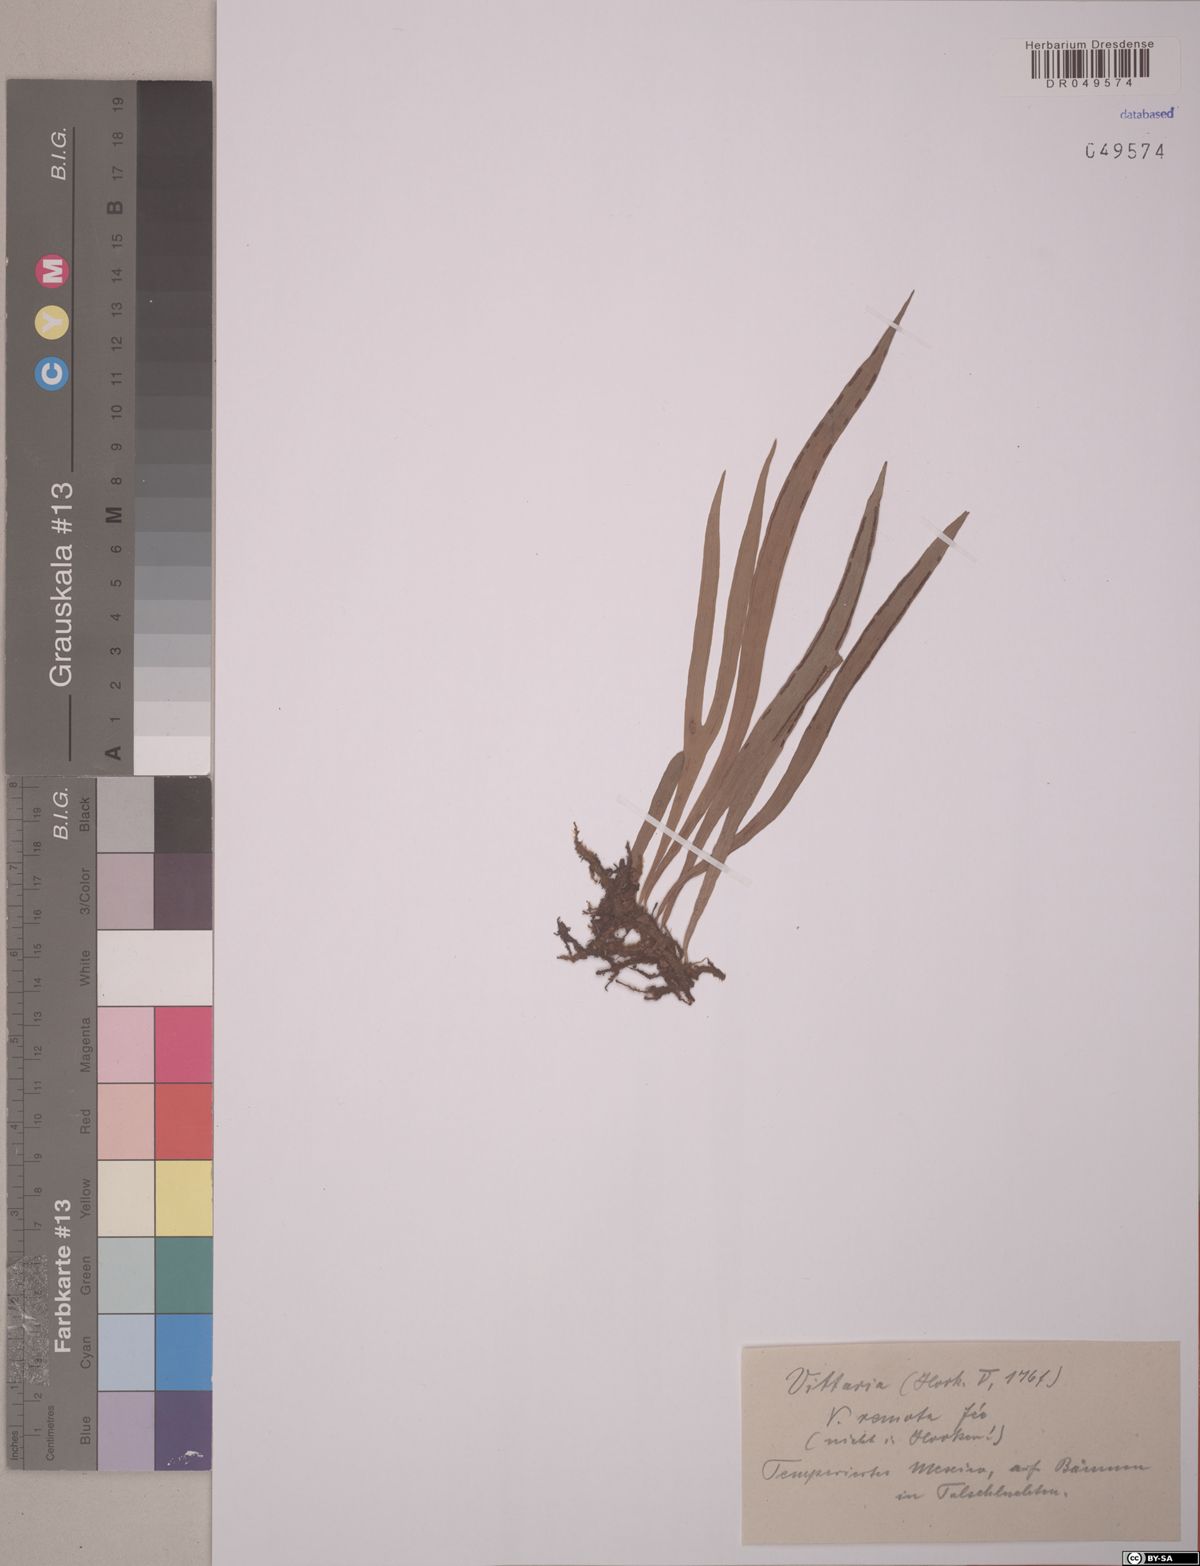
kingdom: Plantae
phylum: Tracheophyta
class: Polypodiopsida
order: Polypodiales
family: Pteridaceae
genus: Radiovittaria
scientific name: Radiovittaria remota
